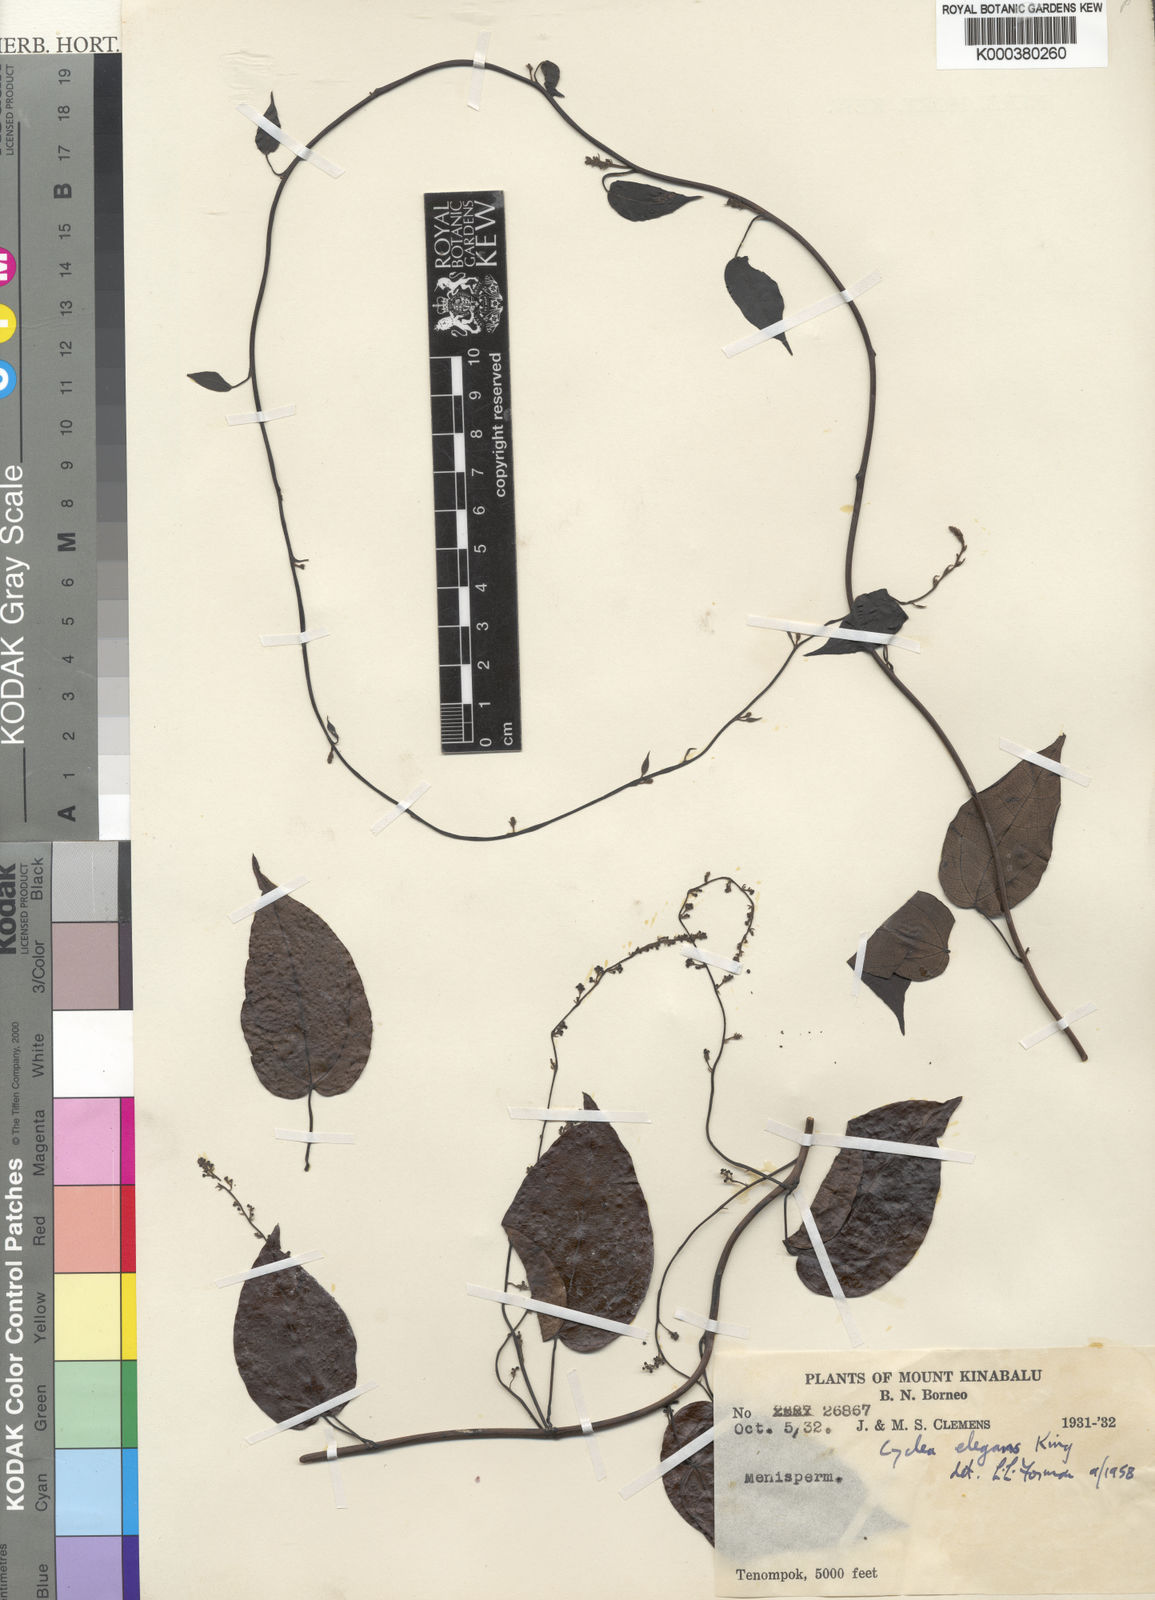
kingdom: Plantae
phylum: Tracheophyta
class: Magnoliopsida
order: Ranunculales
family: Menispermaceae
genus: Cyclea
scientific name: Cyclea elegans
